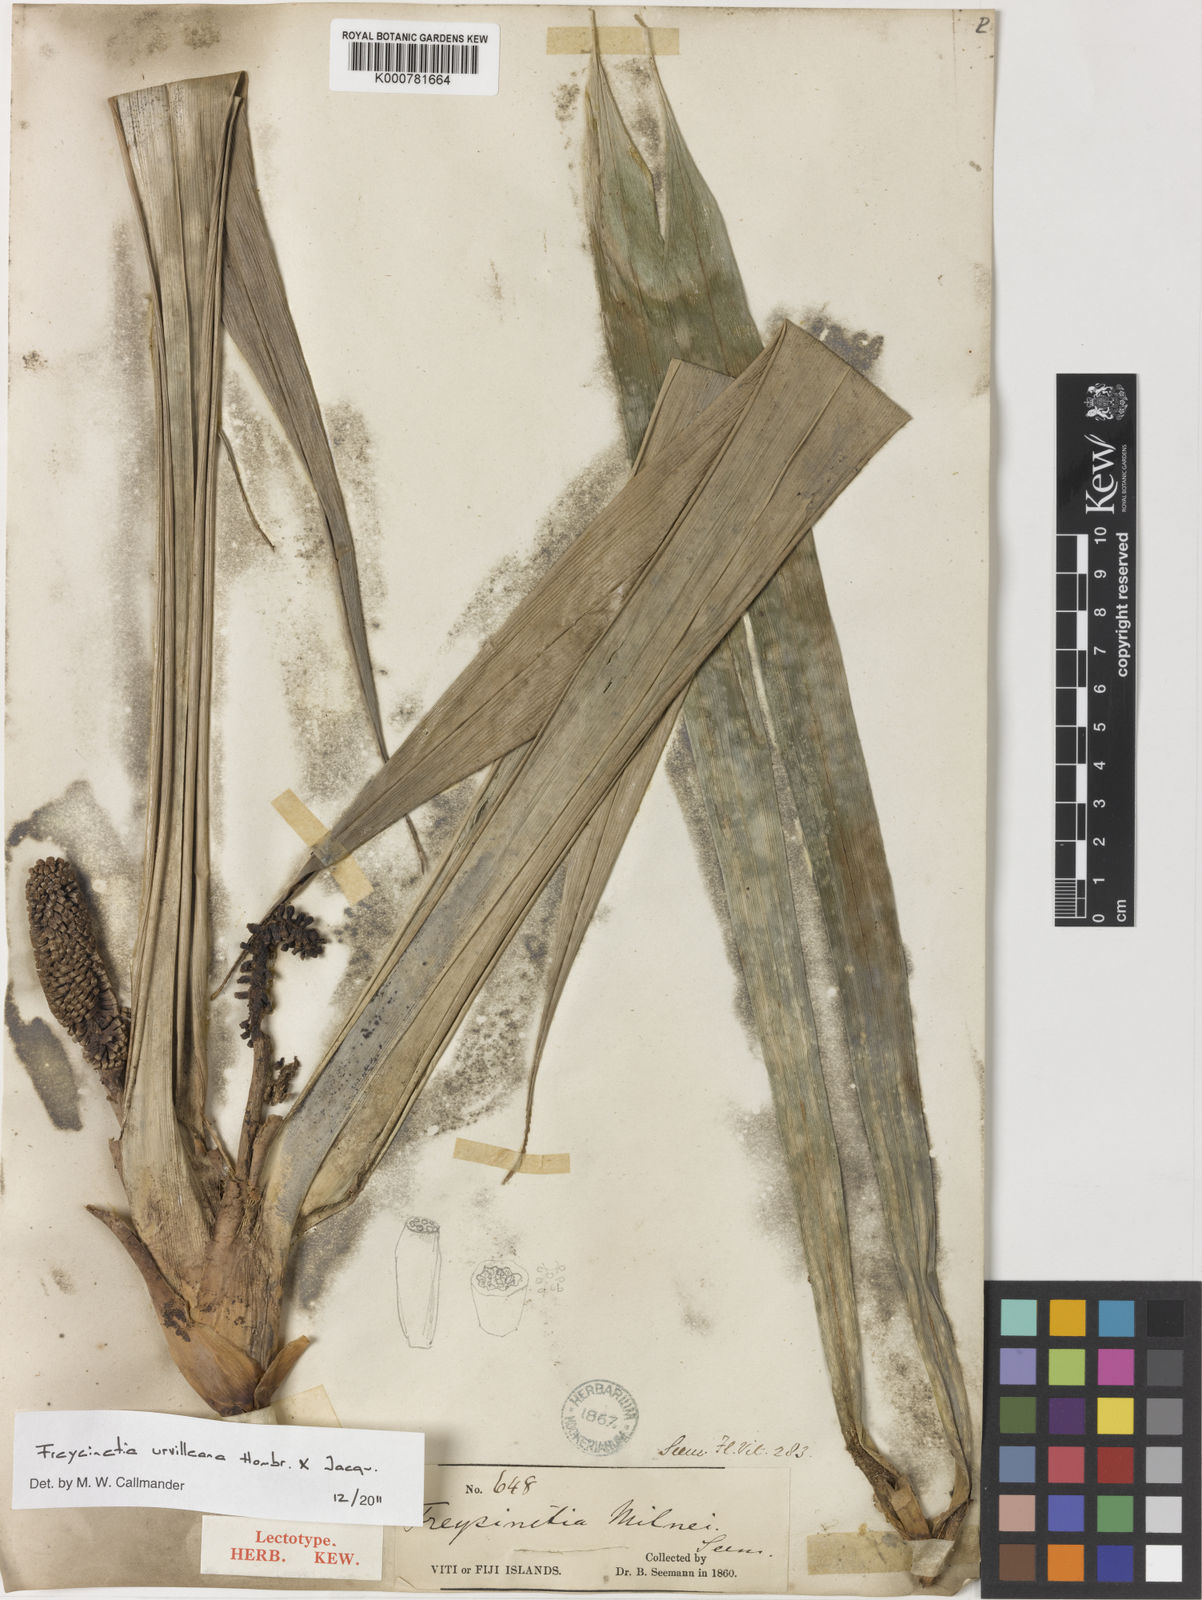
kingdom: Plantae
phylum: Tracheophyta
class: Liliopsida
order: Pandanales
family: Pandanaceae
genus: Freycinetia
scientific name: Freycinetia urvilleana
